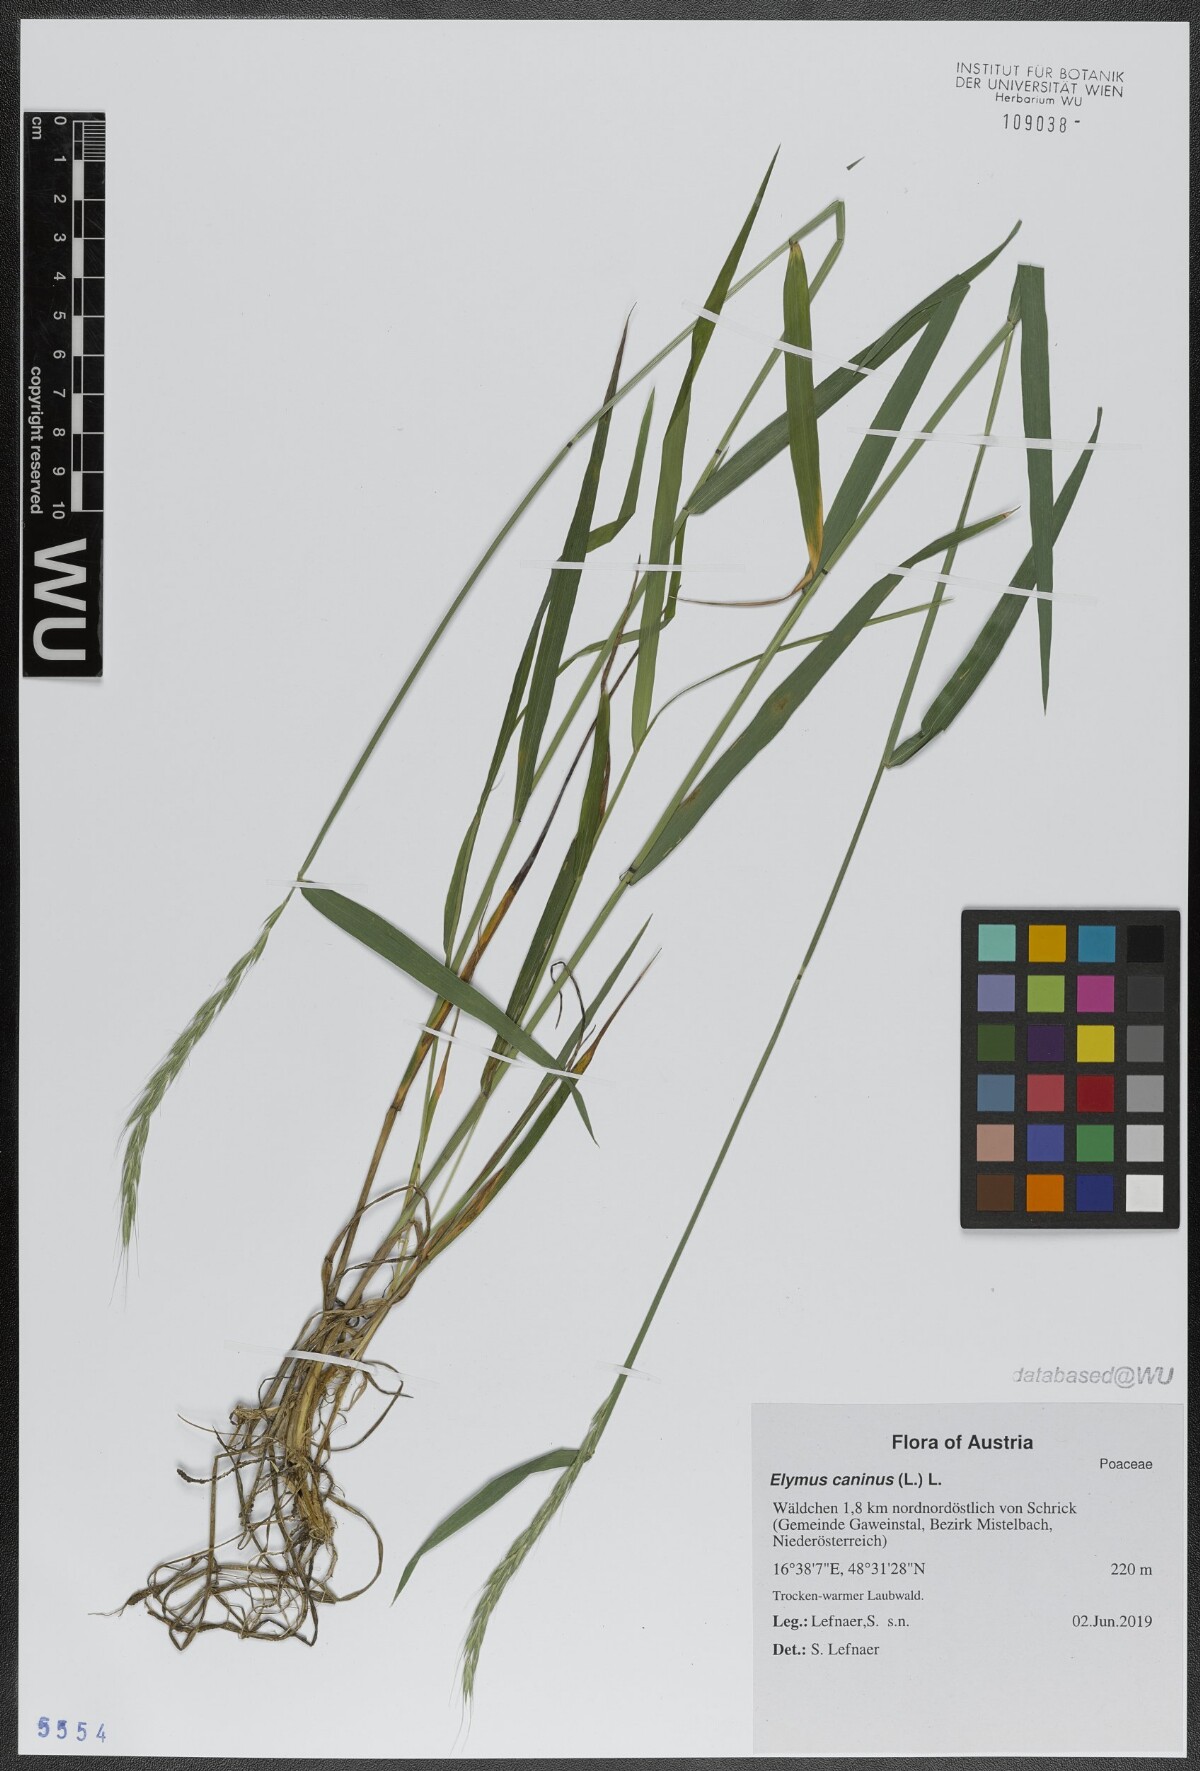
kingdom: Plantae
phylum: Tracheophyta
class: Liliopsida
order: Poales
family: Poaceae
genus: Elymus
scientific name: Elymus caninus
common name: Bearded couch
